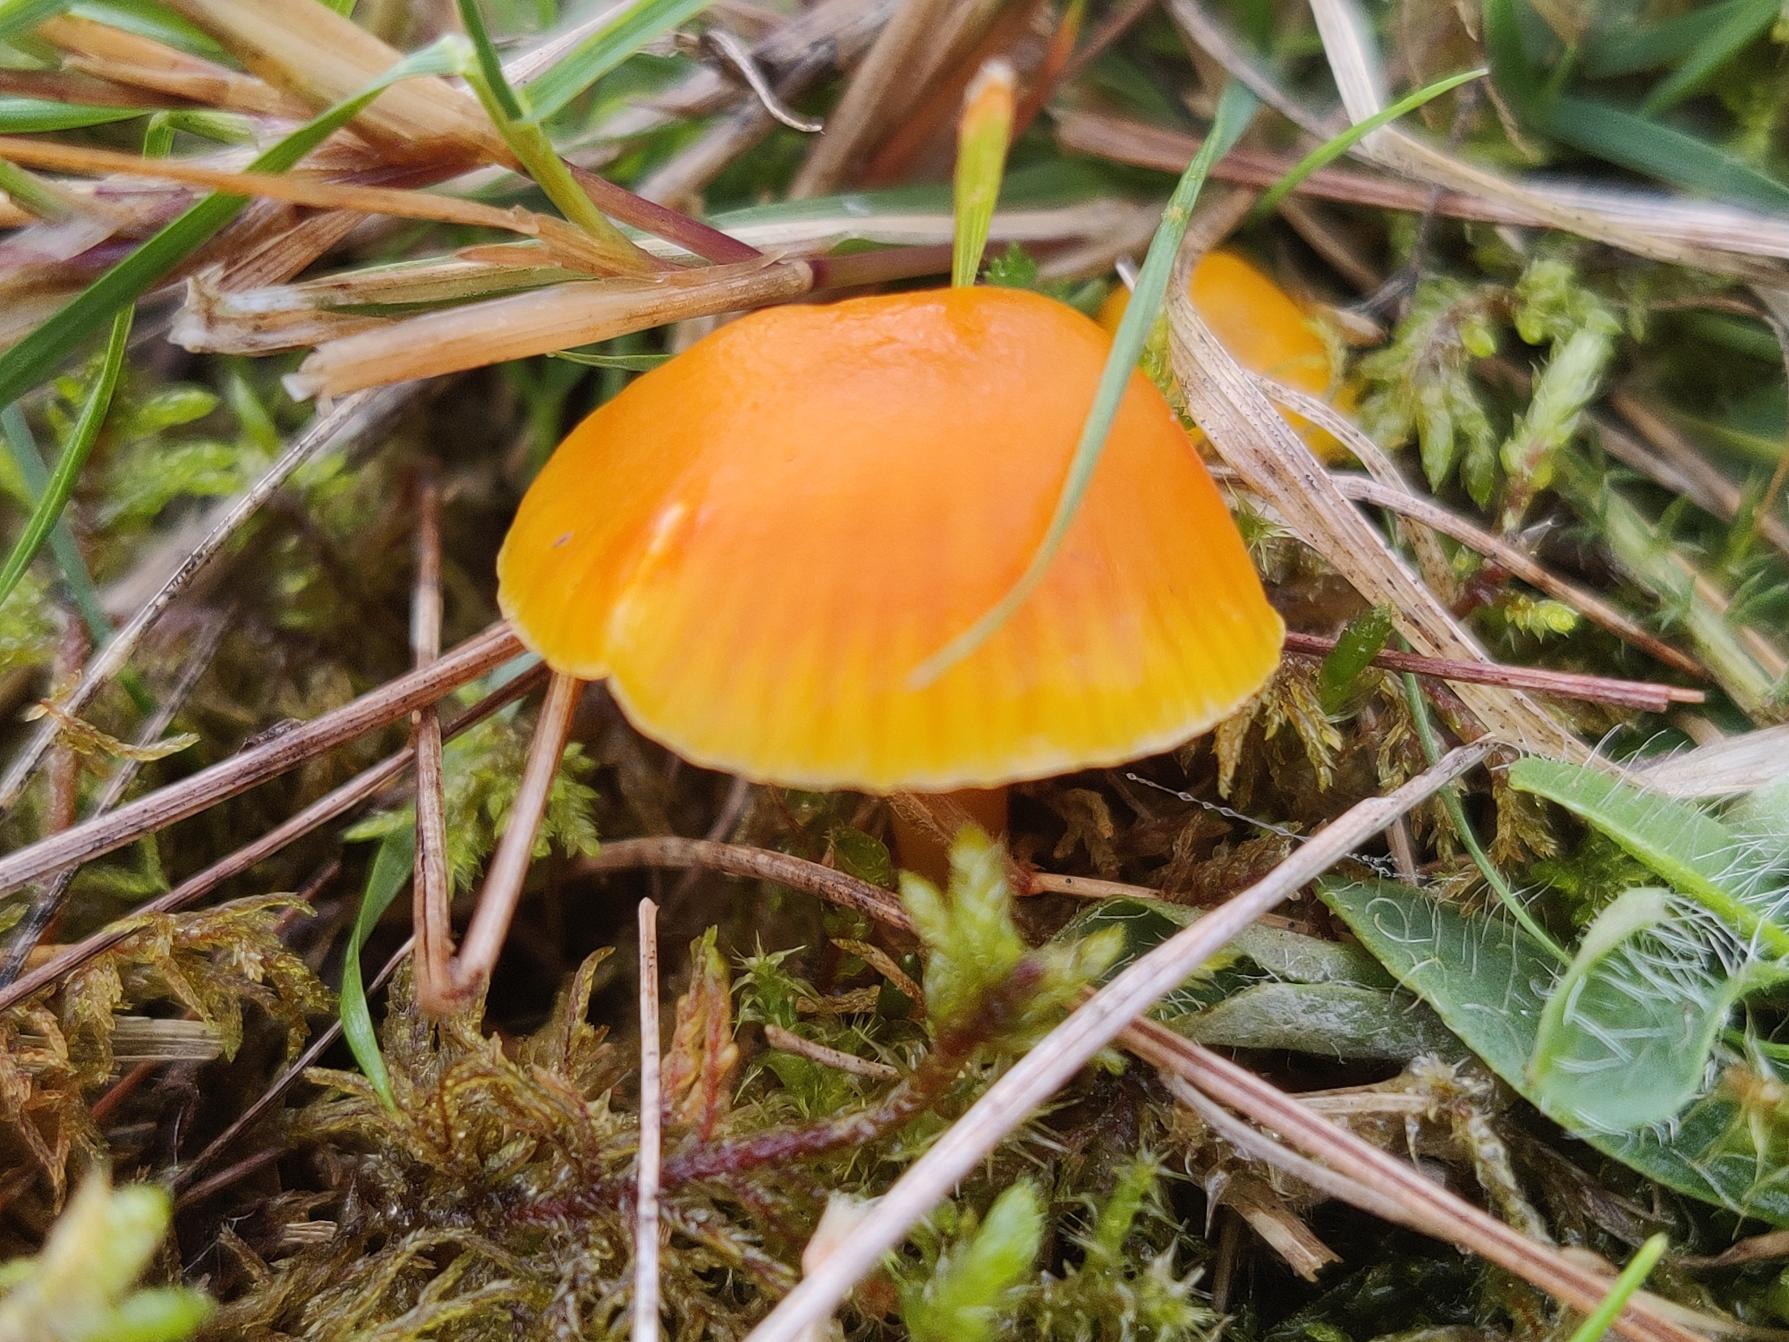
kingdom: Fungi
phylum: Basidiomycota
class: Agaricomycetes
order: Agaricales
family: Hygrophoraceae
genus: Hygrocybe
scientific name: Hygrocybe ceracea
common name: Voksgul vokshat
